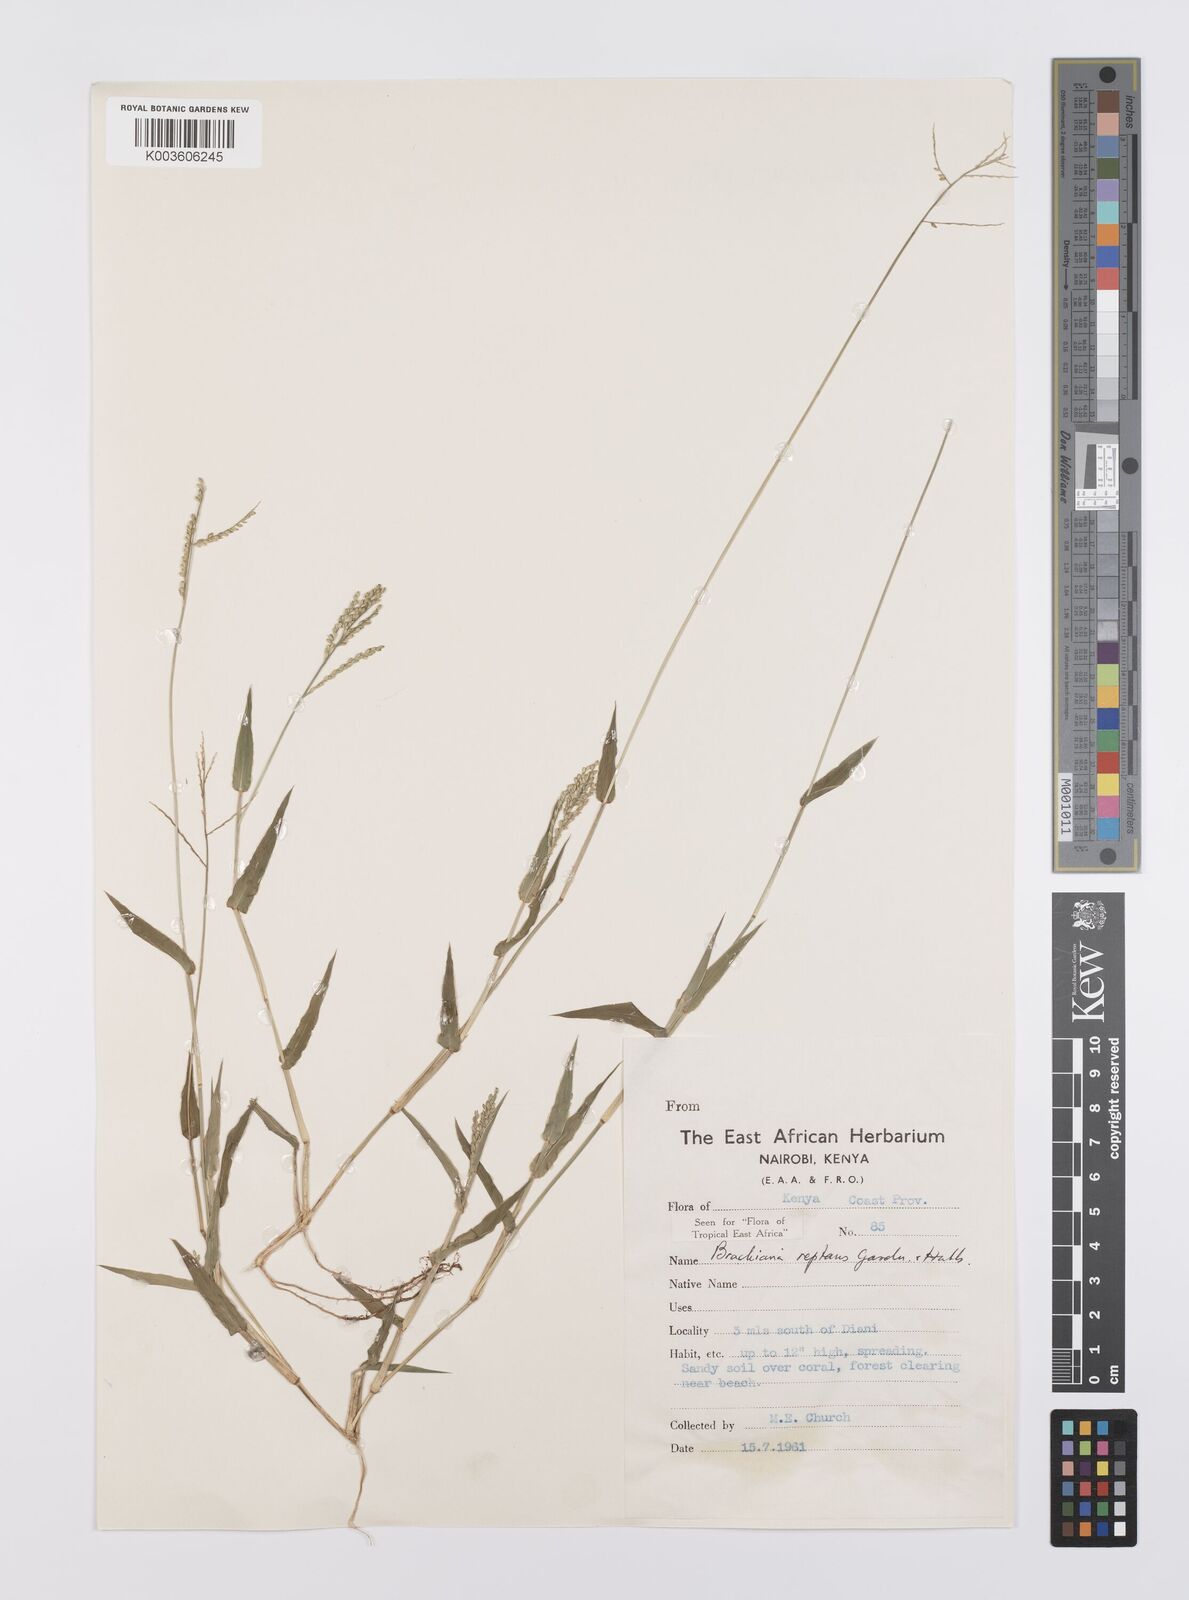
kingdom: Plantae
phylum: Tracheophyta
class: Liliopsida
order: Poales
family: Poaceae
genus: Urochloa
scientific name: Urochloa reptans
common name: Sprawling signalgrass
